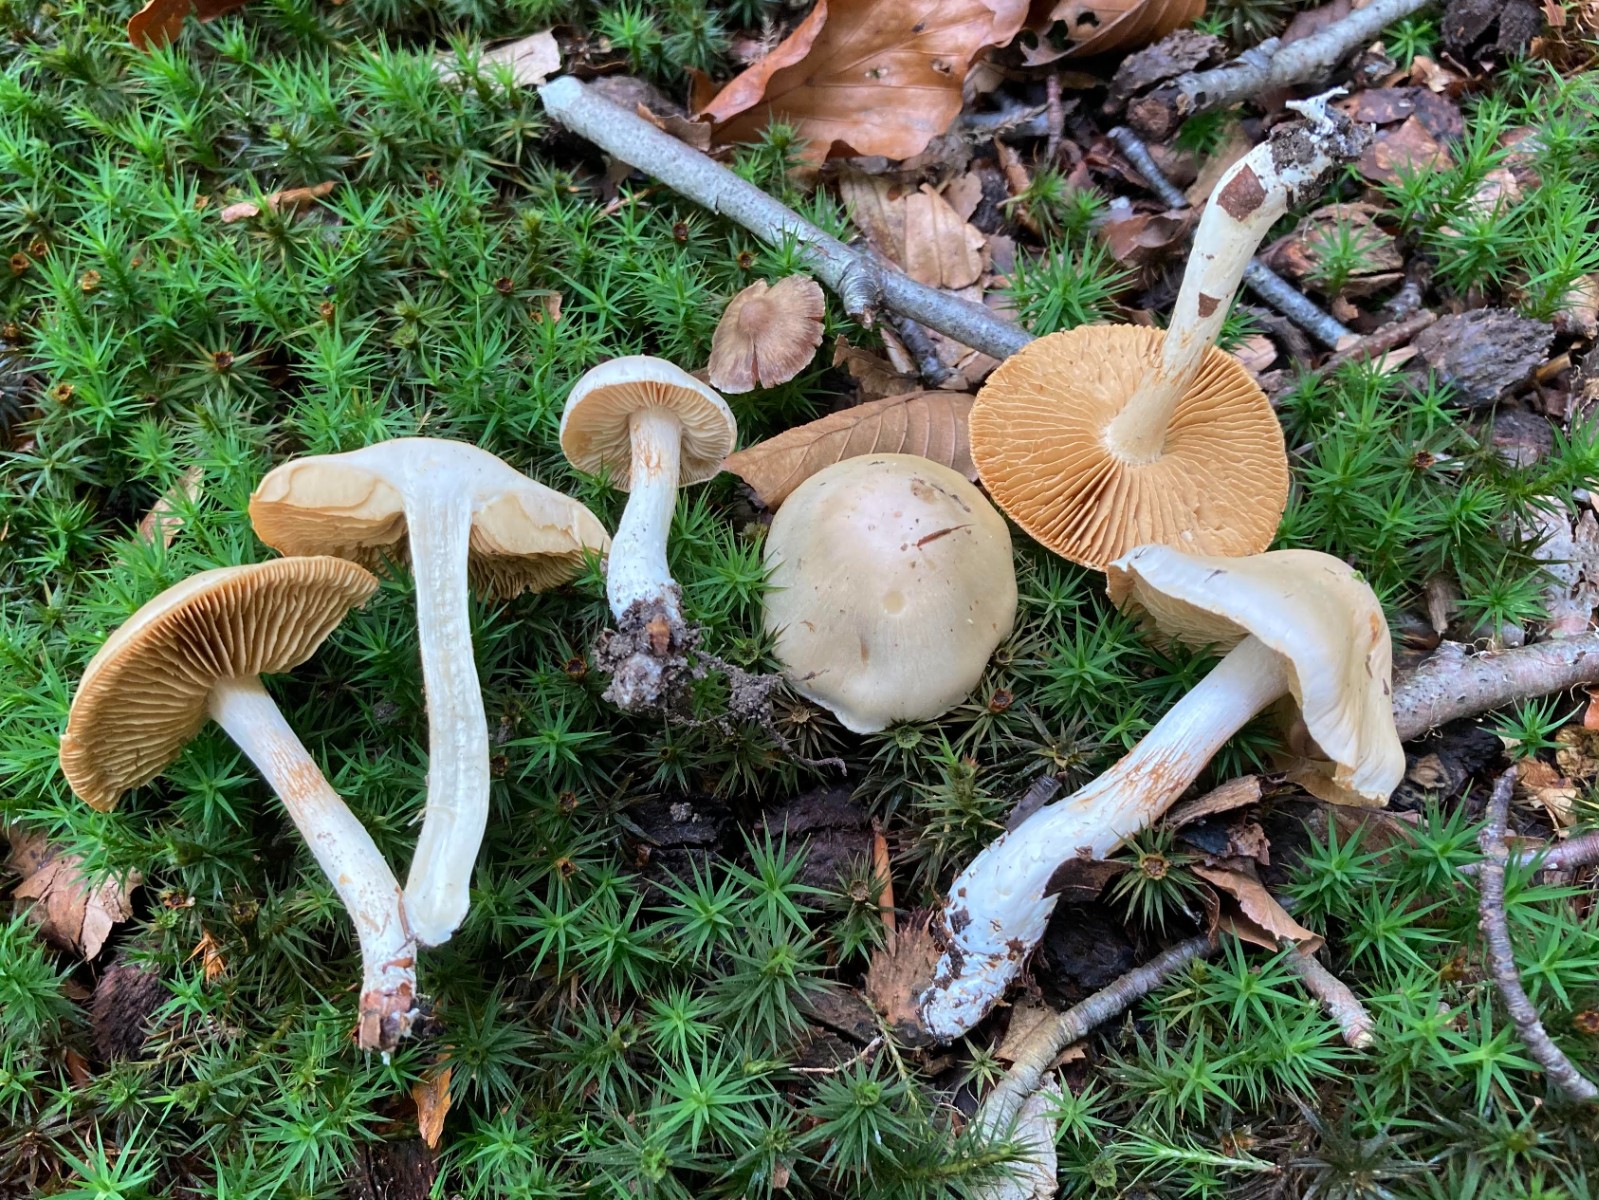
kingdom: Fungi
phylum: Basidiomycota
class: Agaricomycetes
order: Agaricales
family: Cortinariaceae
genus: Thaxterogaster
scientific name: Thaxterogaster leucoluteolus
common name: isabella slørhat
